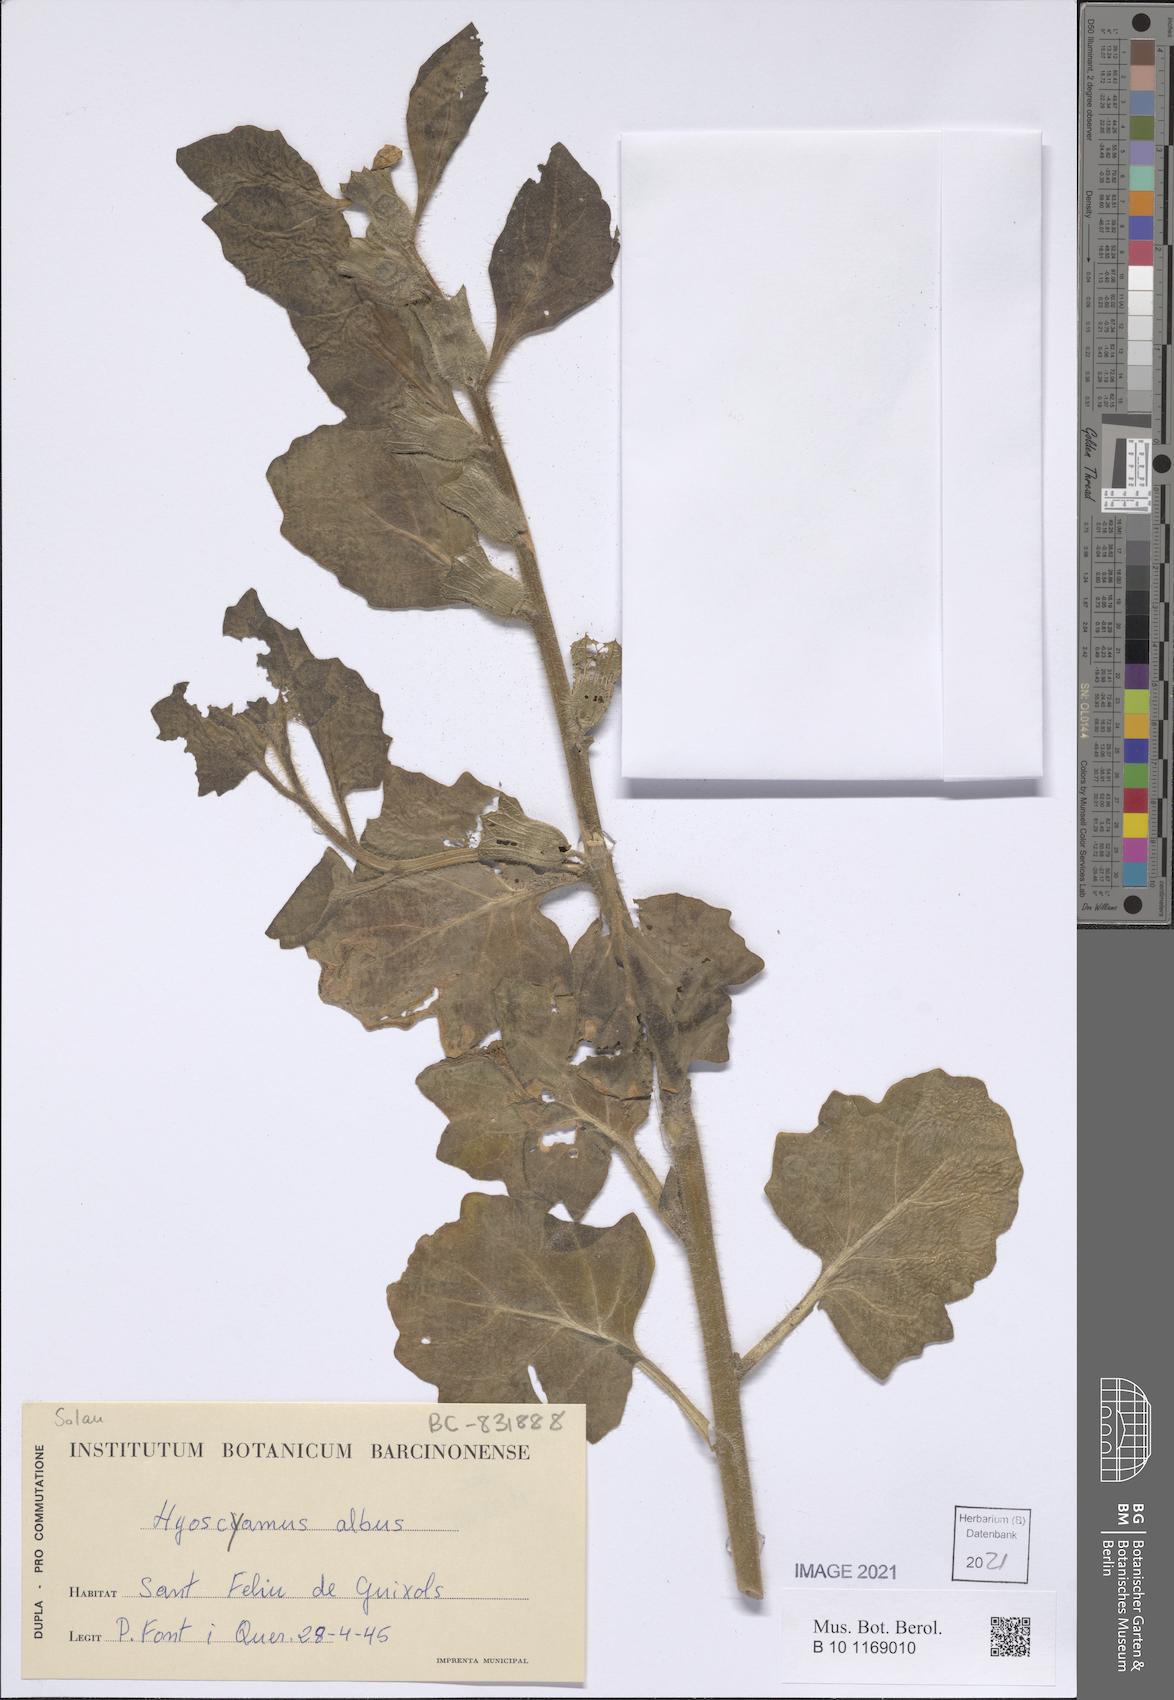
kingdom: Plantae
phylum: Tracheophyta
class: Magnoliopsida
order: Solanales
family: Solanaceae
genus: Hyoscyamus
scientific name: Hyoscyamus albus
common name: White henbane
